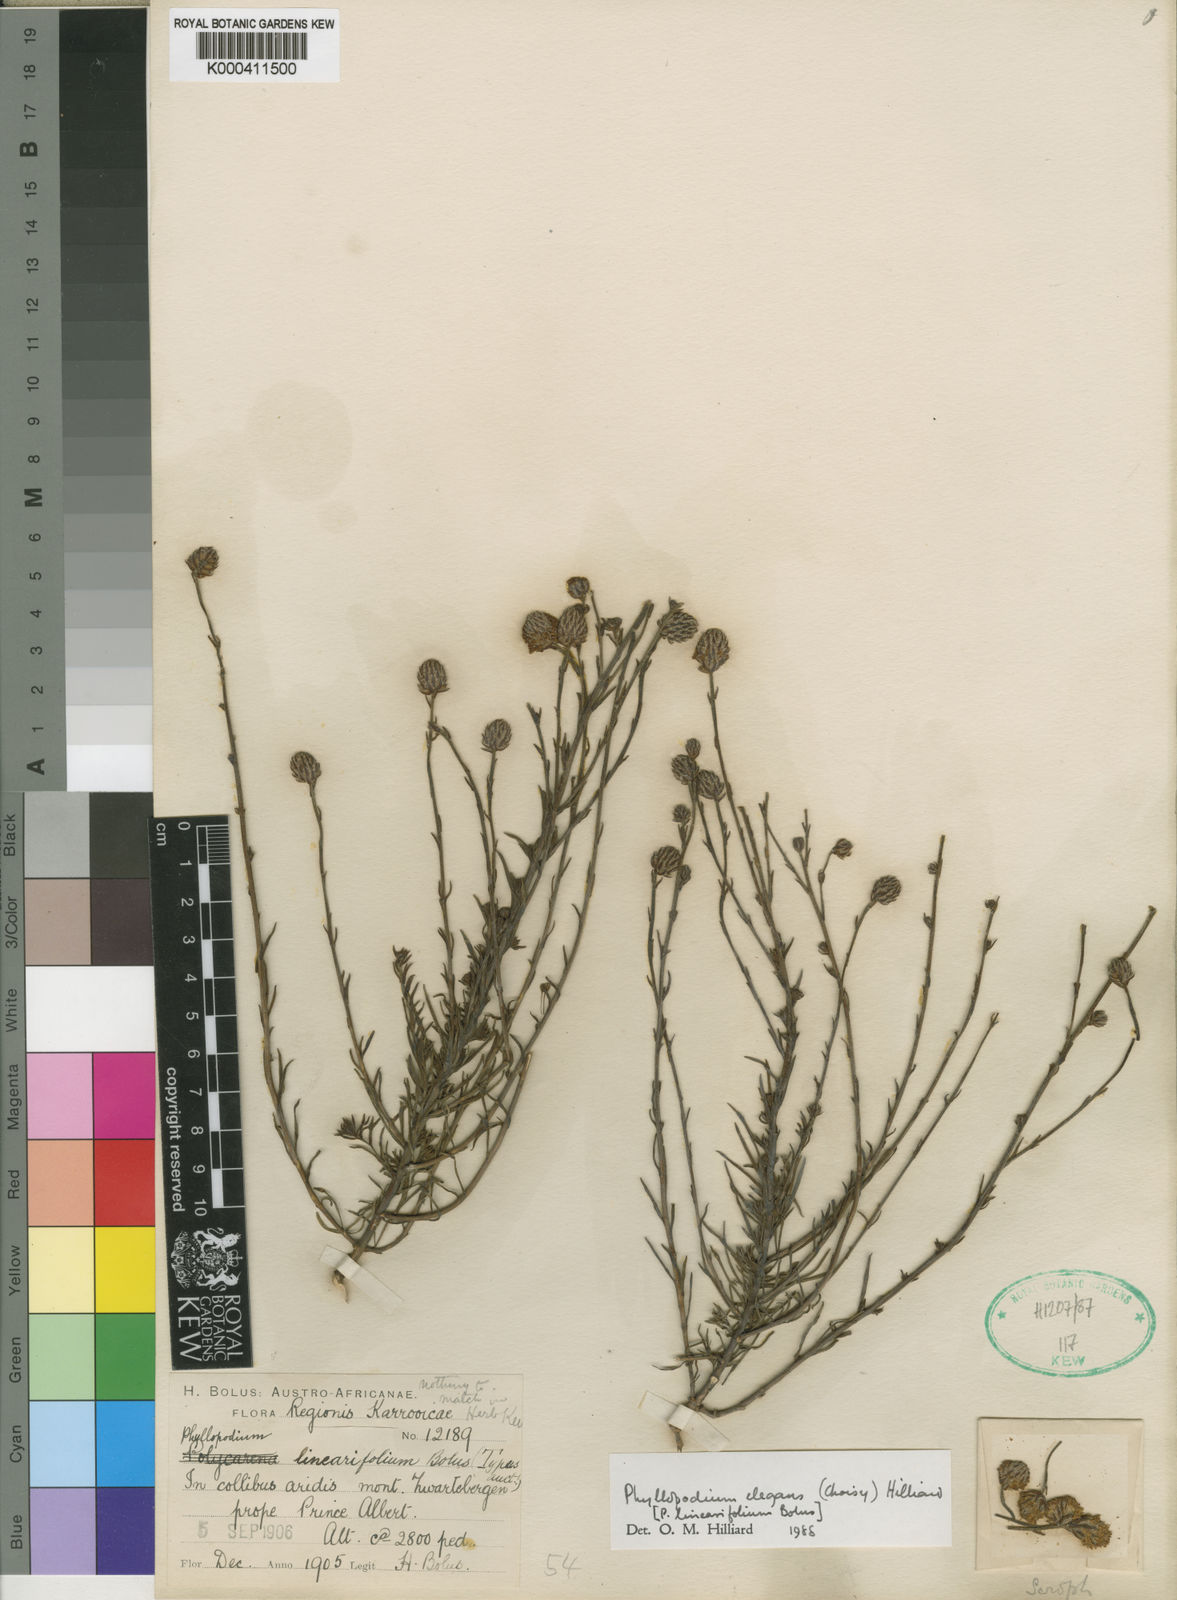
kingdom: Plantae
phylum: Tracheophyta
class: Magnoliopsida
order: Lamiales
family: Scrophulariaceae
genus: Phyllopodium
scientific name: Phyllopodium elegans
